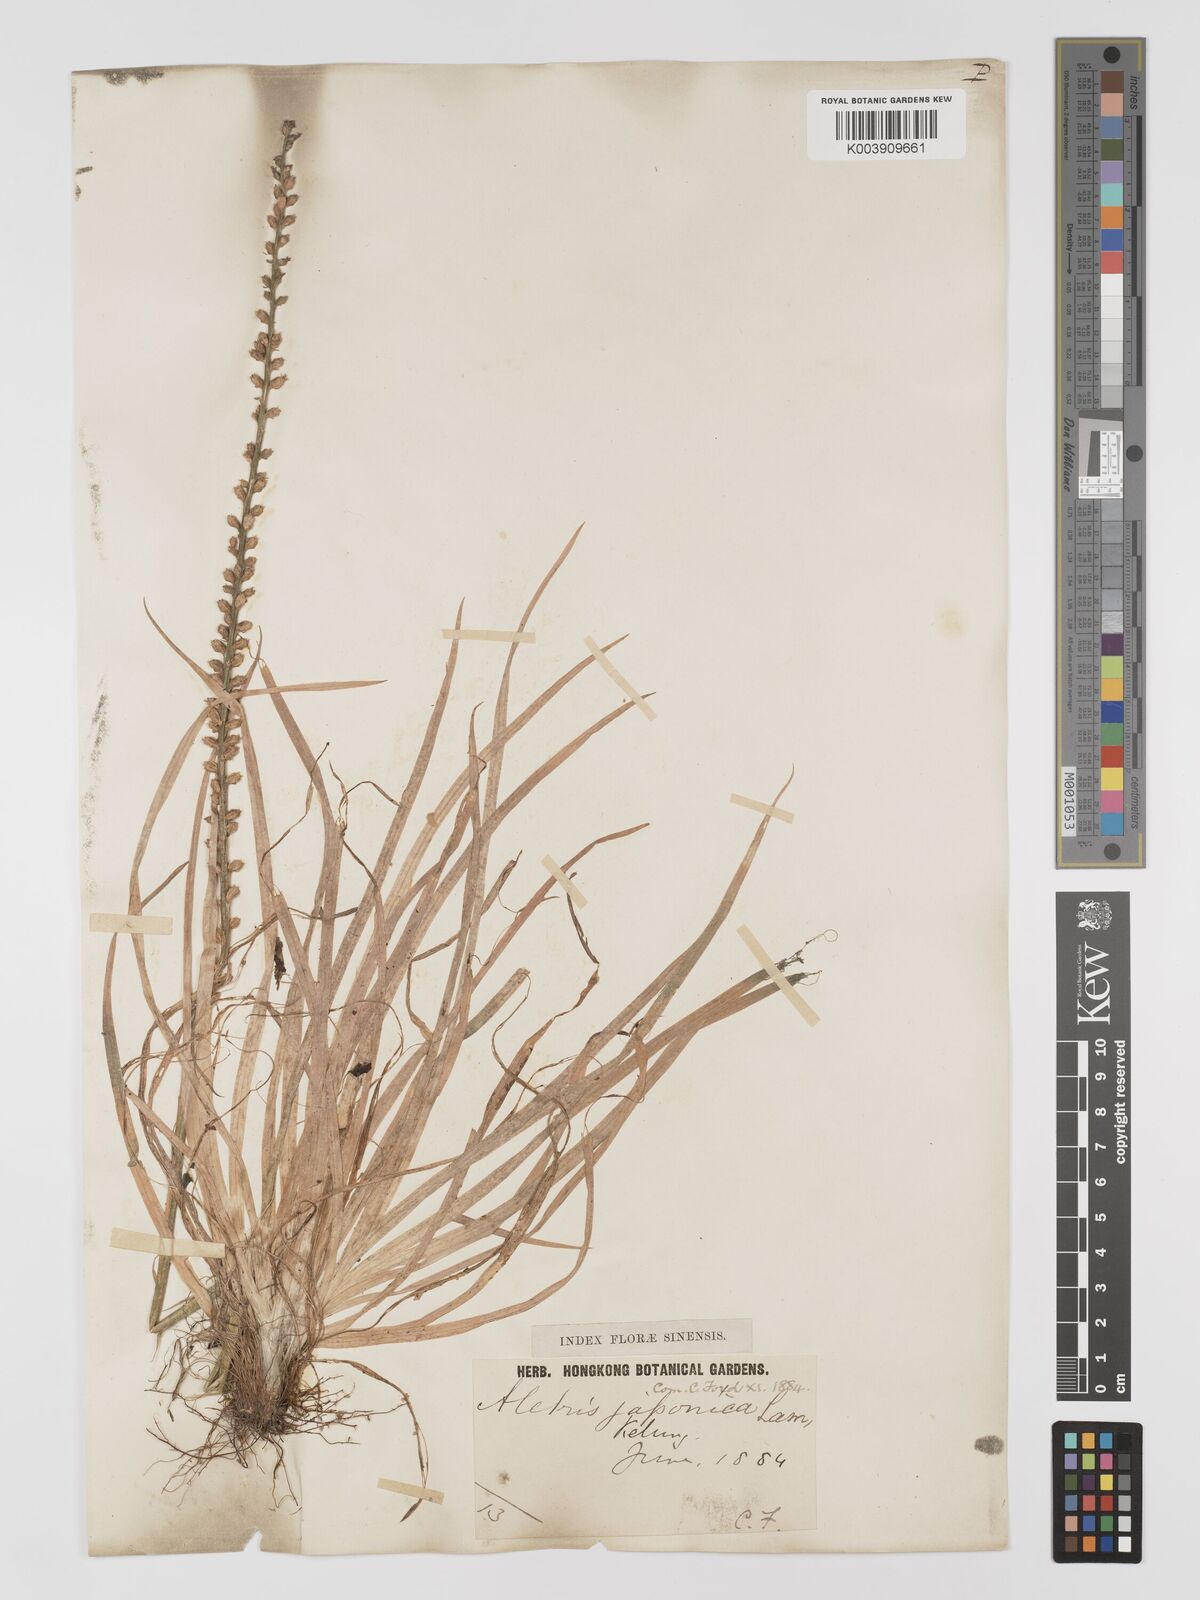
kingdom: Plantae
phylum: Tracheophyta
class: Liliopsida
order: Dioscoreales
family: Nartheciaceae
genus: Aletris
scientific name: Aletris spicata
